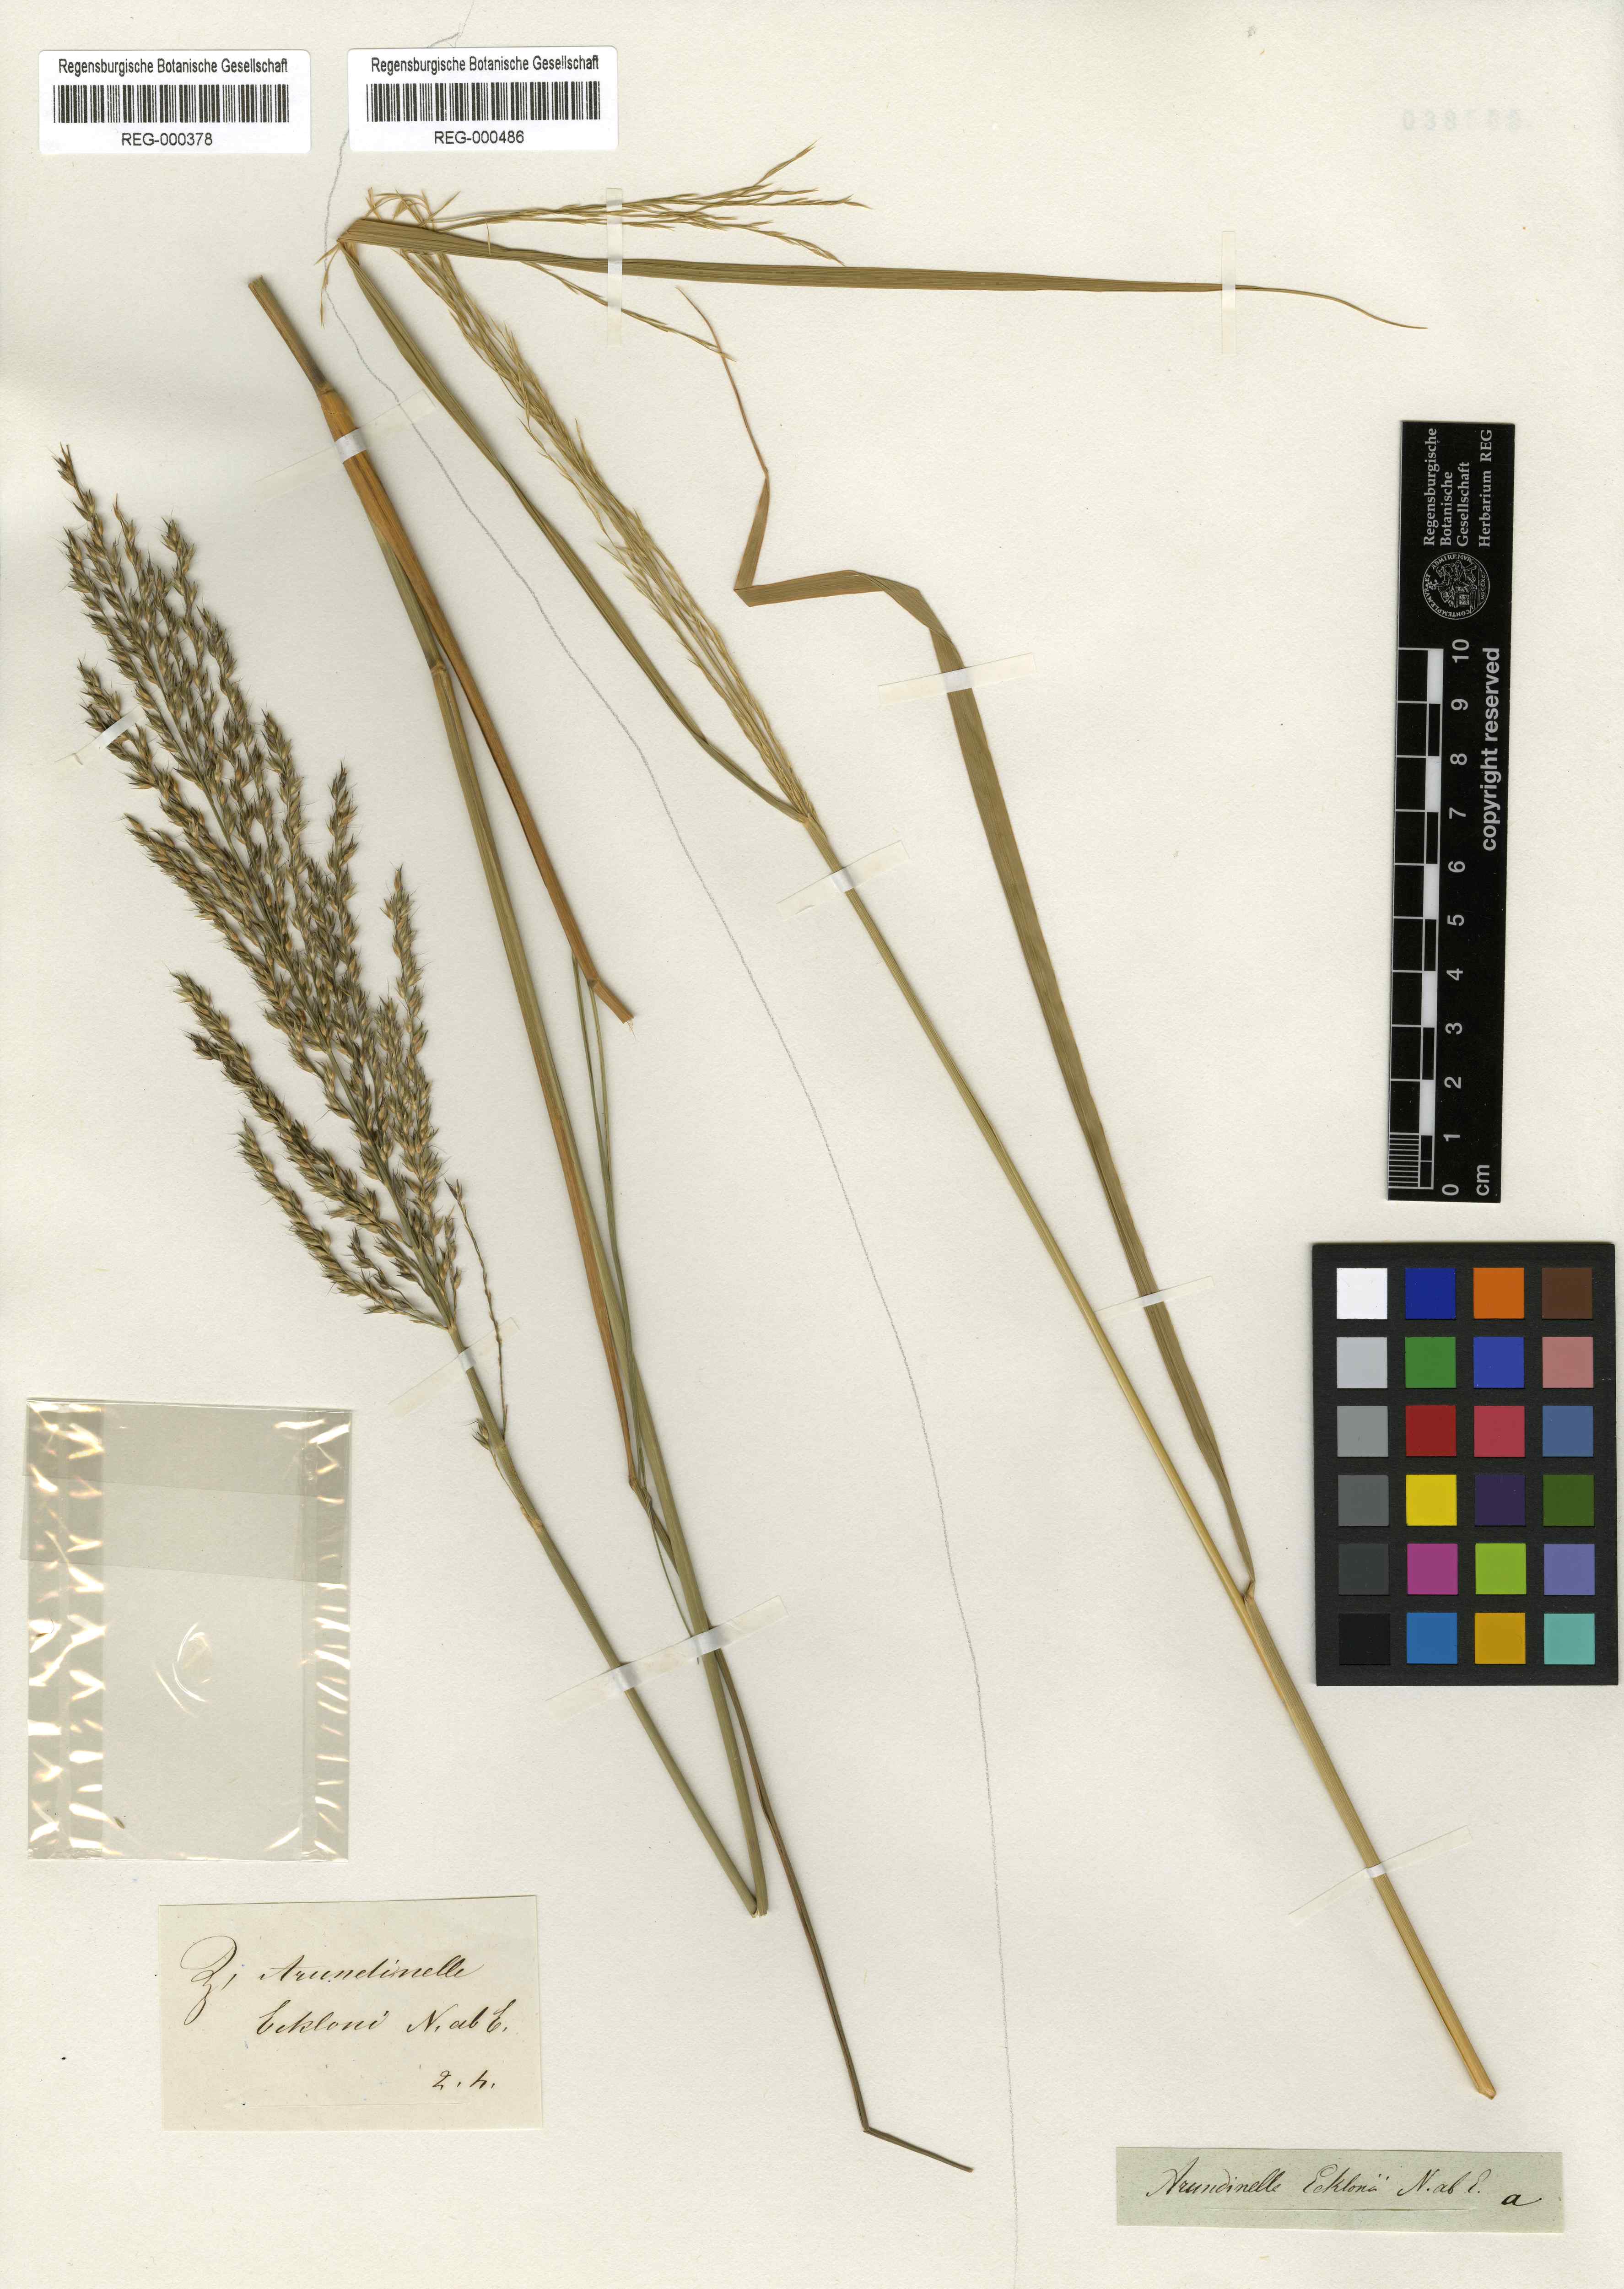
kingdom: Plantae
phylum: Tracheophyta
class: Liliopsida
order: Poales
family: Poaceae
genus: Arundinella
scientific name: Arundinella nepalensis
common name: Reed grass
